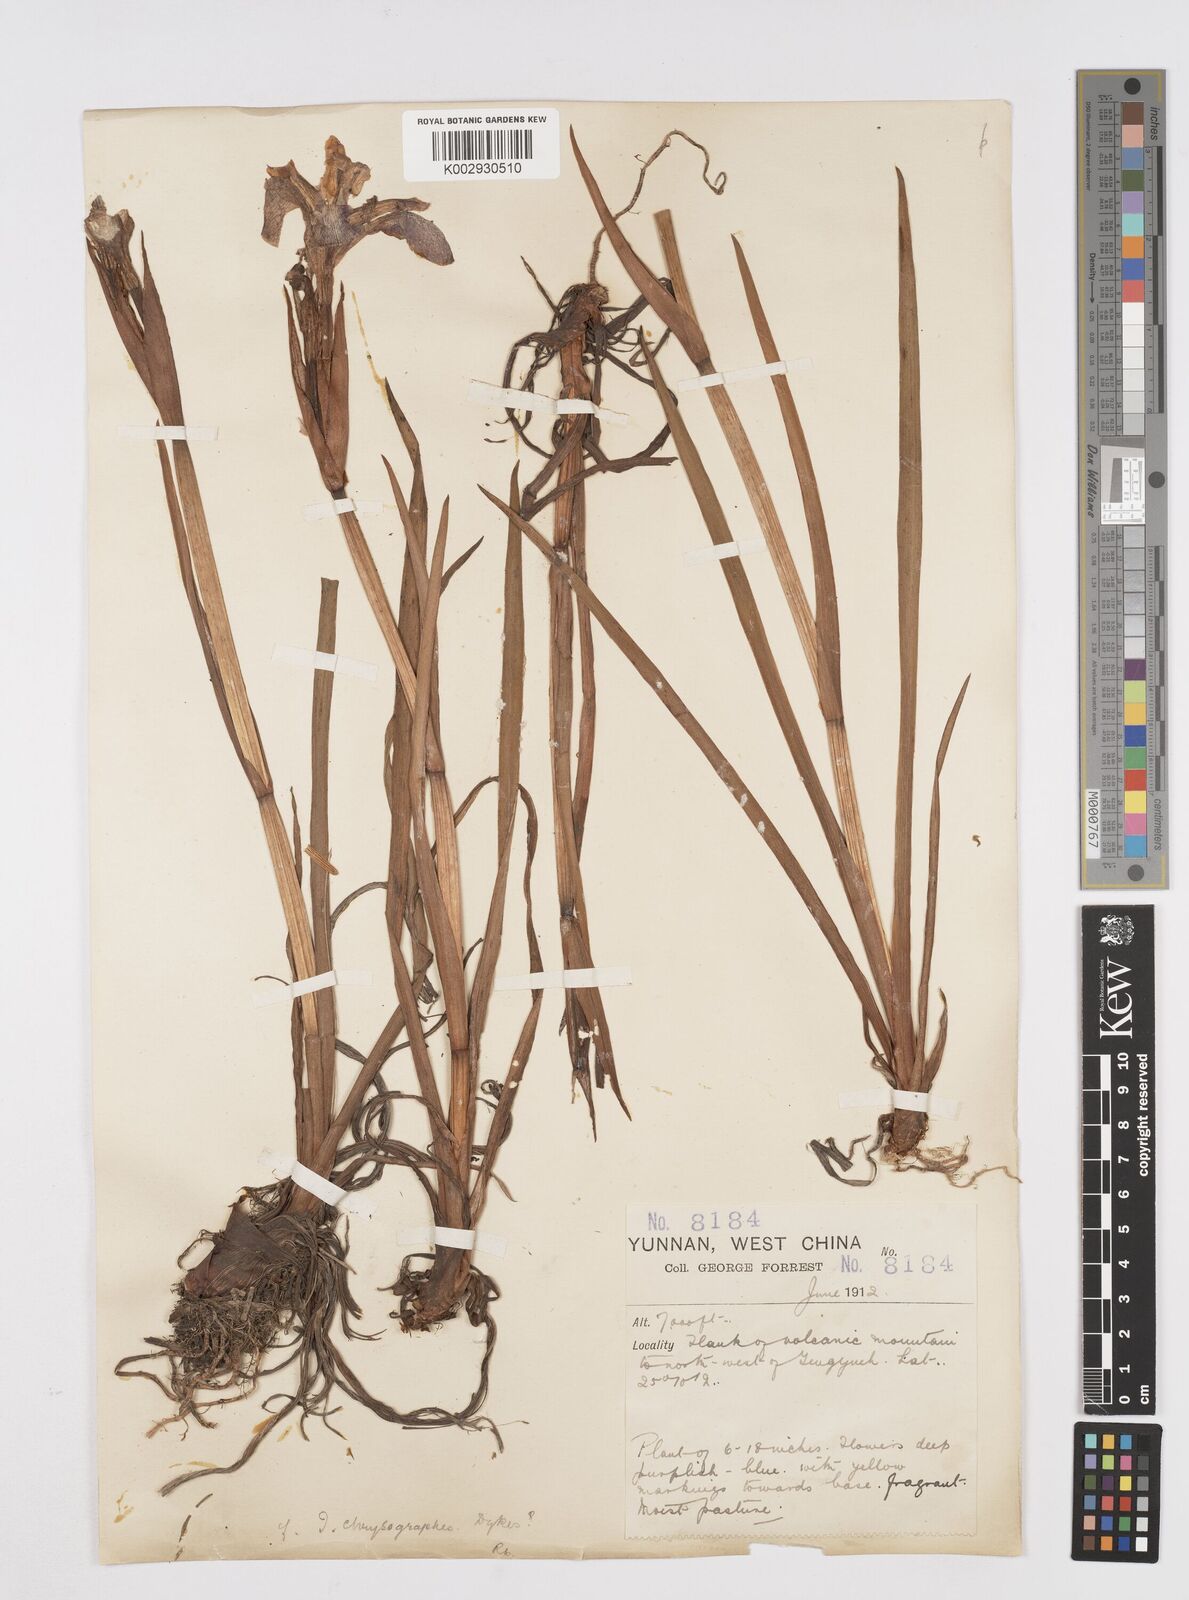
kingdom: Plantae
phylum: Tracheophyta
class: Liliopsida
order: Asparagales
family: Iridaceae
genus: Iris
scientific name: Iris chrysographes
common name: Gold-vein iris
